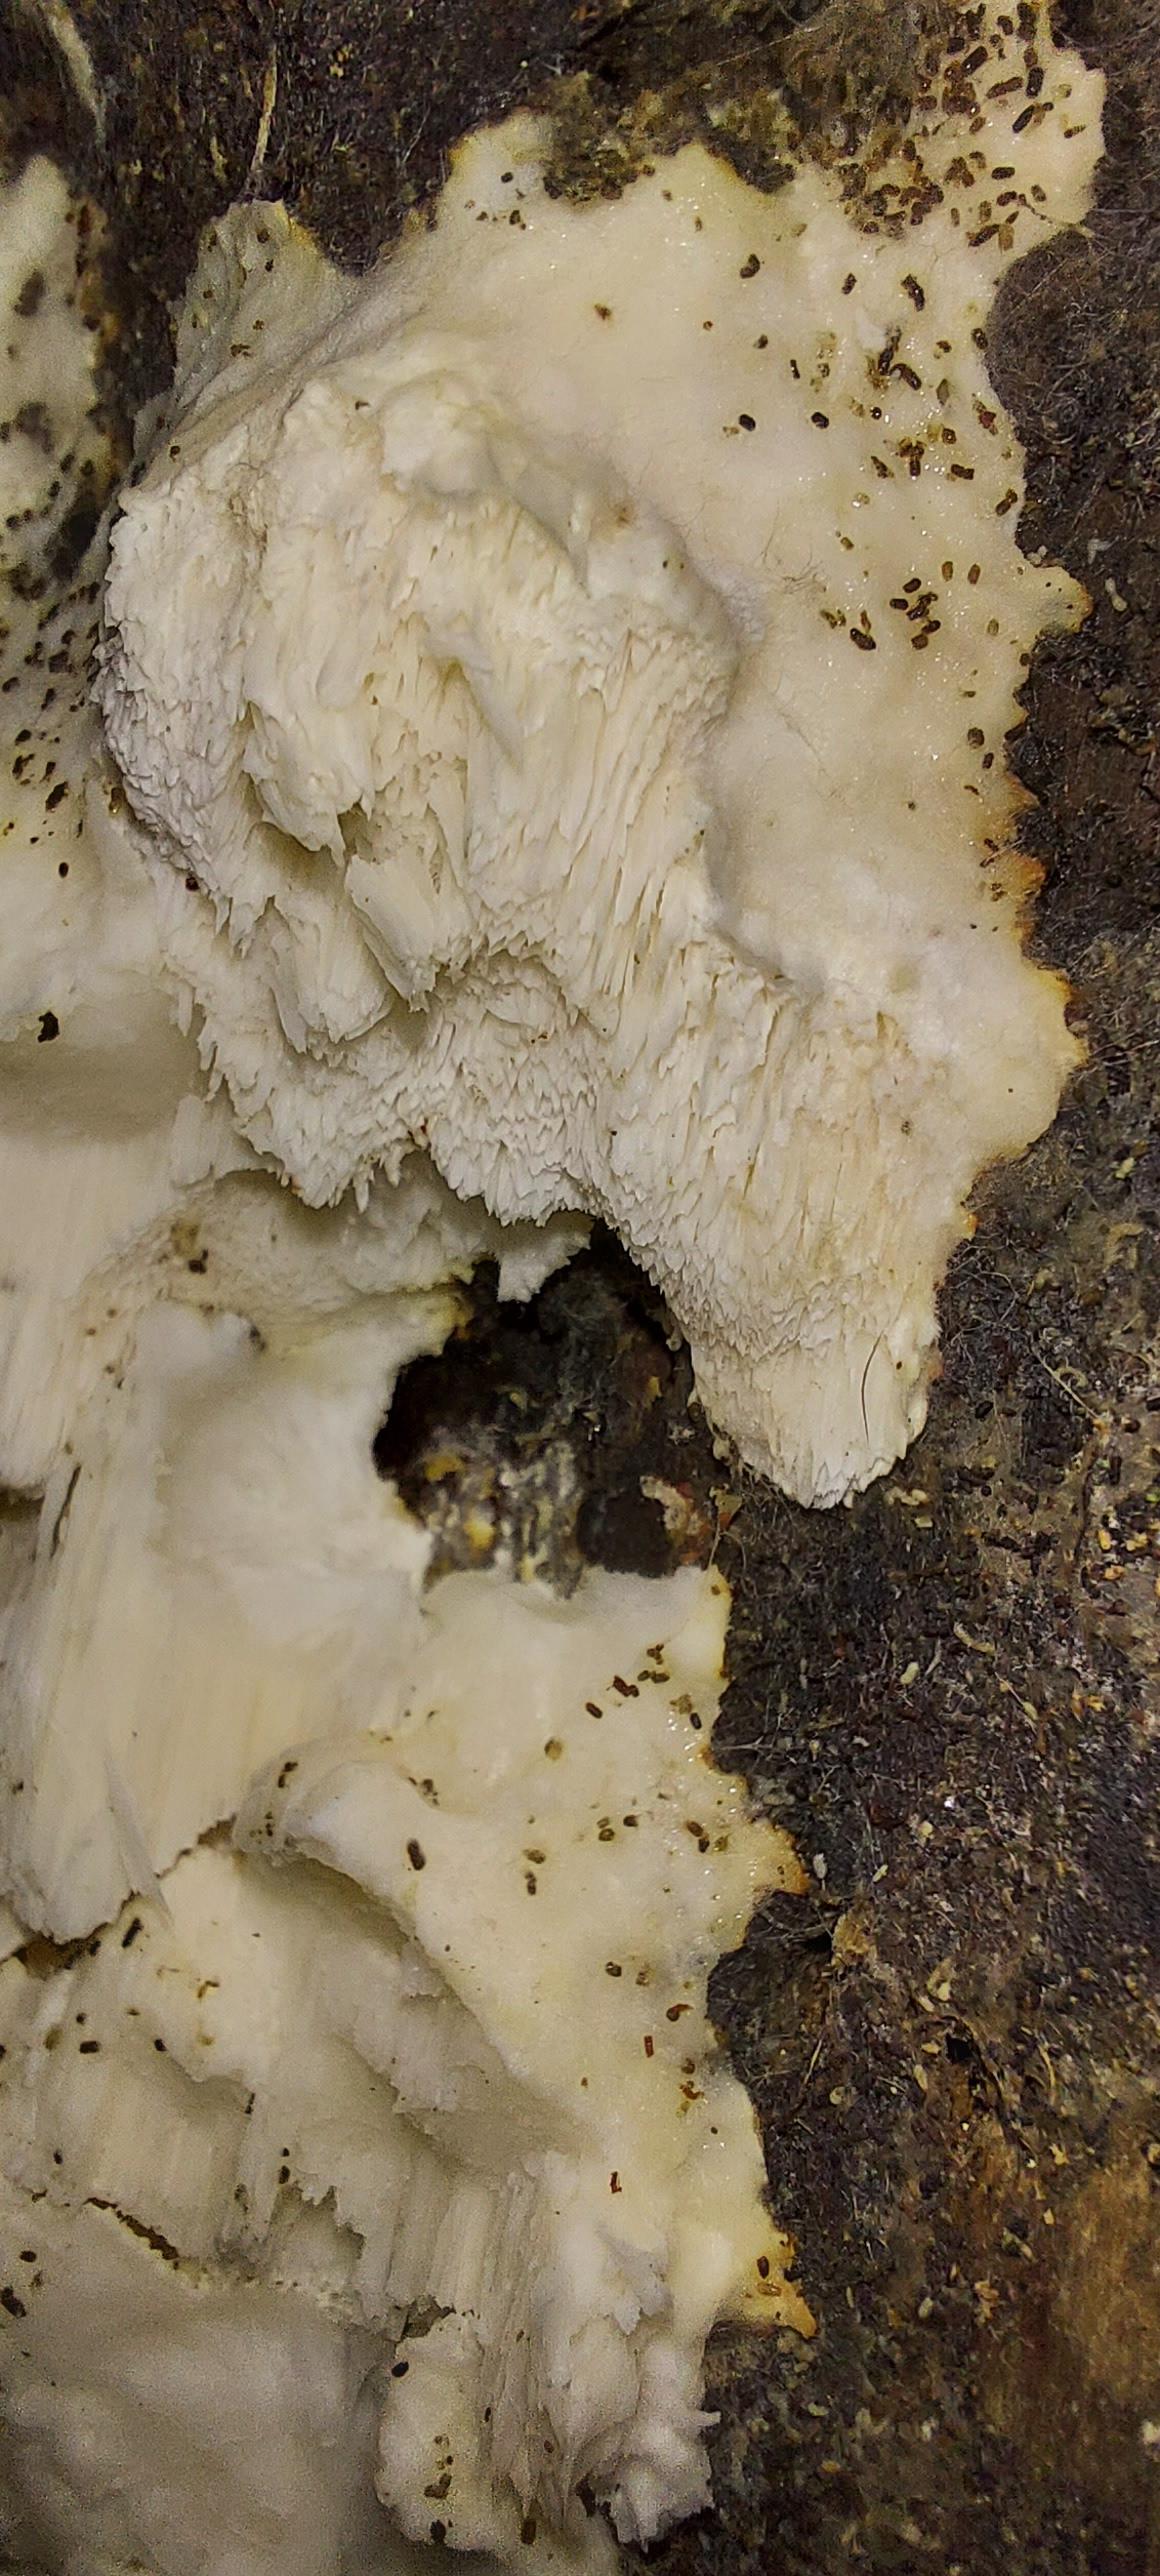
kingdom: Fungi
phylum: Basidiomycota
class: Agaricomycetes
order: Polyporales
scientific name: Polyporales
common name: poresvampordenen
